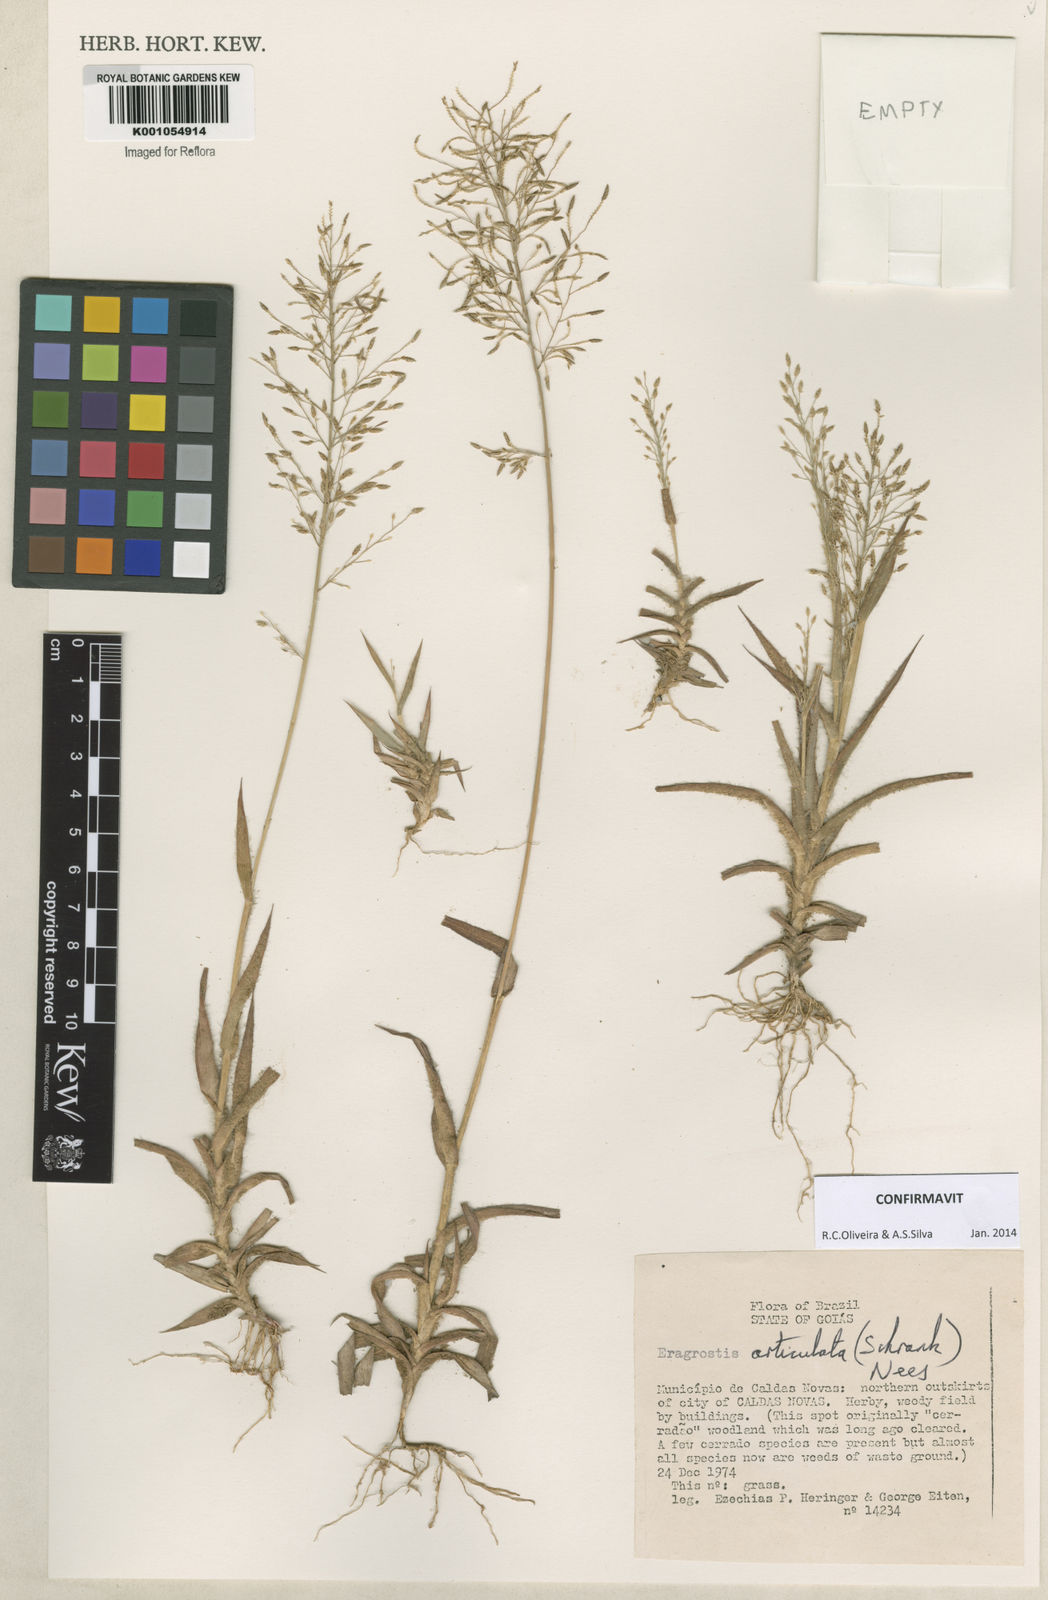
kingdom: Plantae
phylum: Tracheophyta
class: Liliopsida
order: Poales
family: Poaceae
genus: Eragrostis
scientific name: Eragrostis articulata
